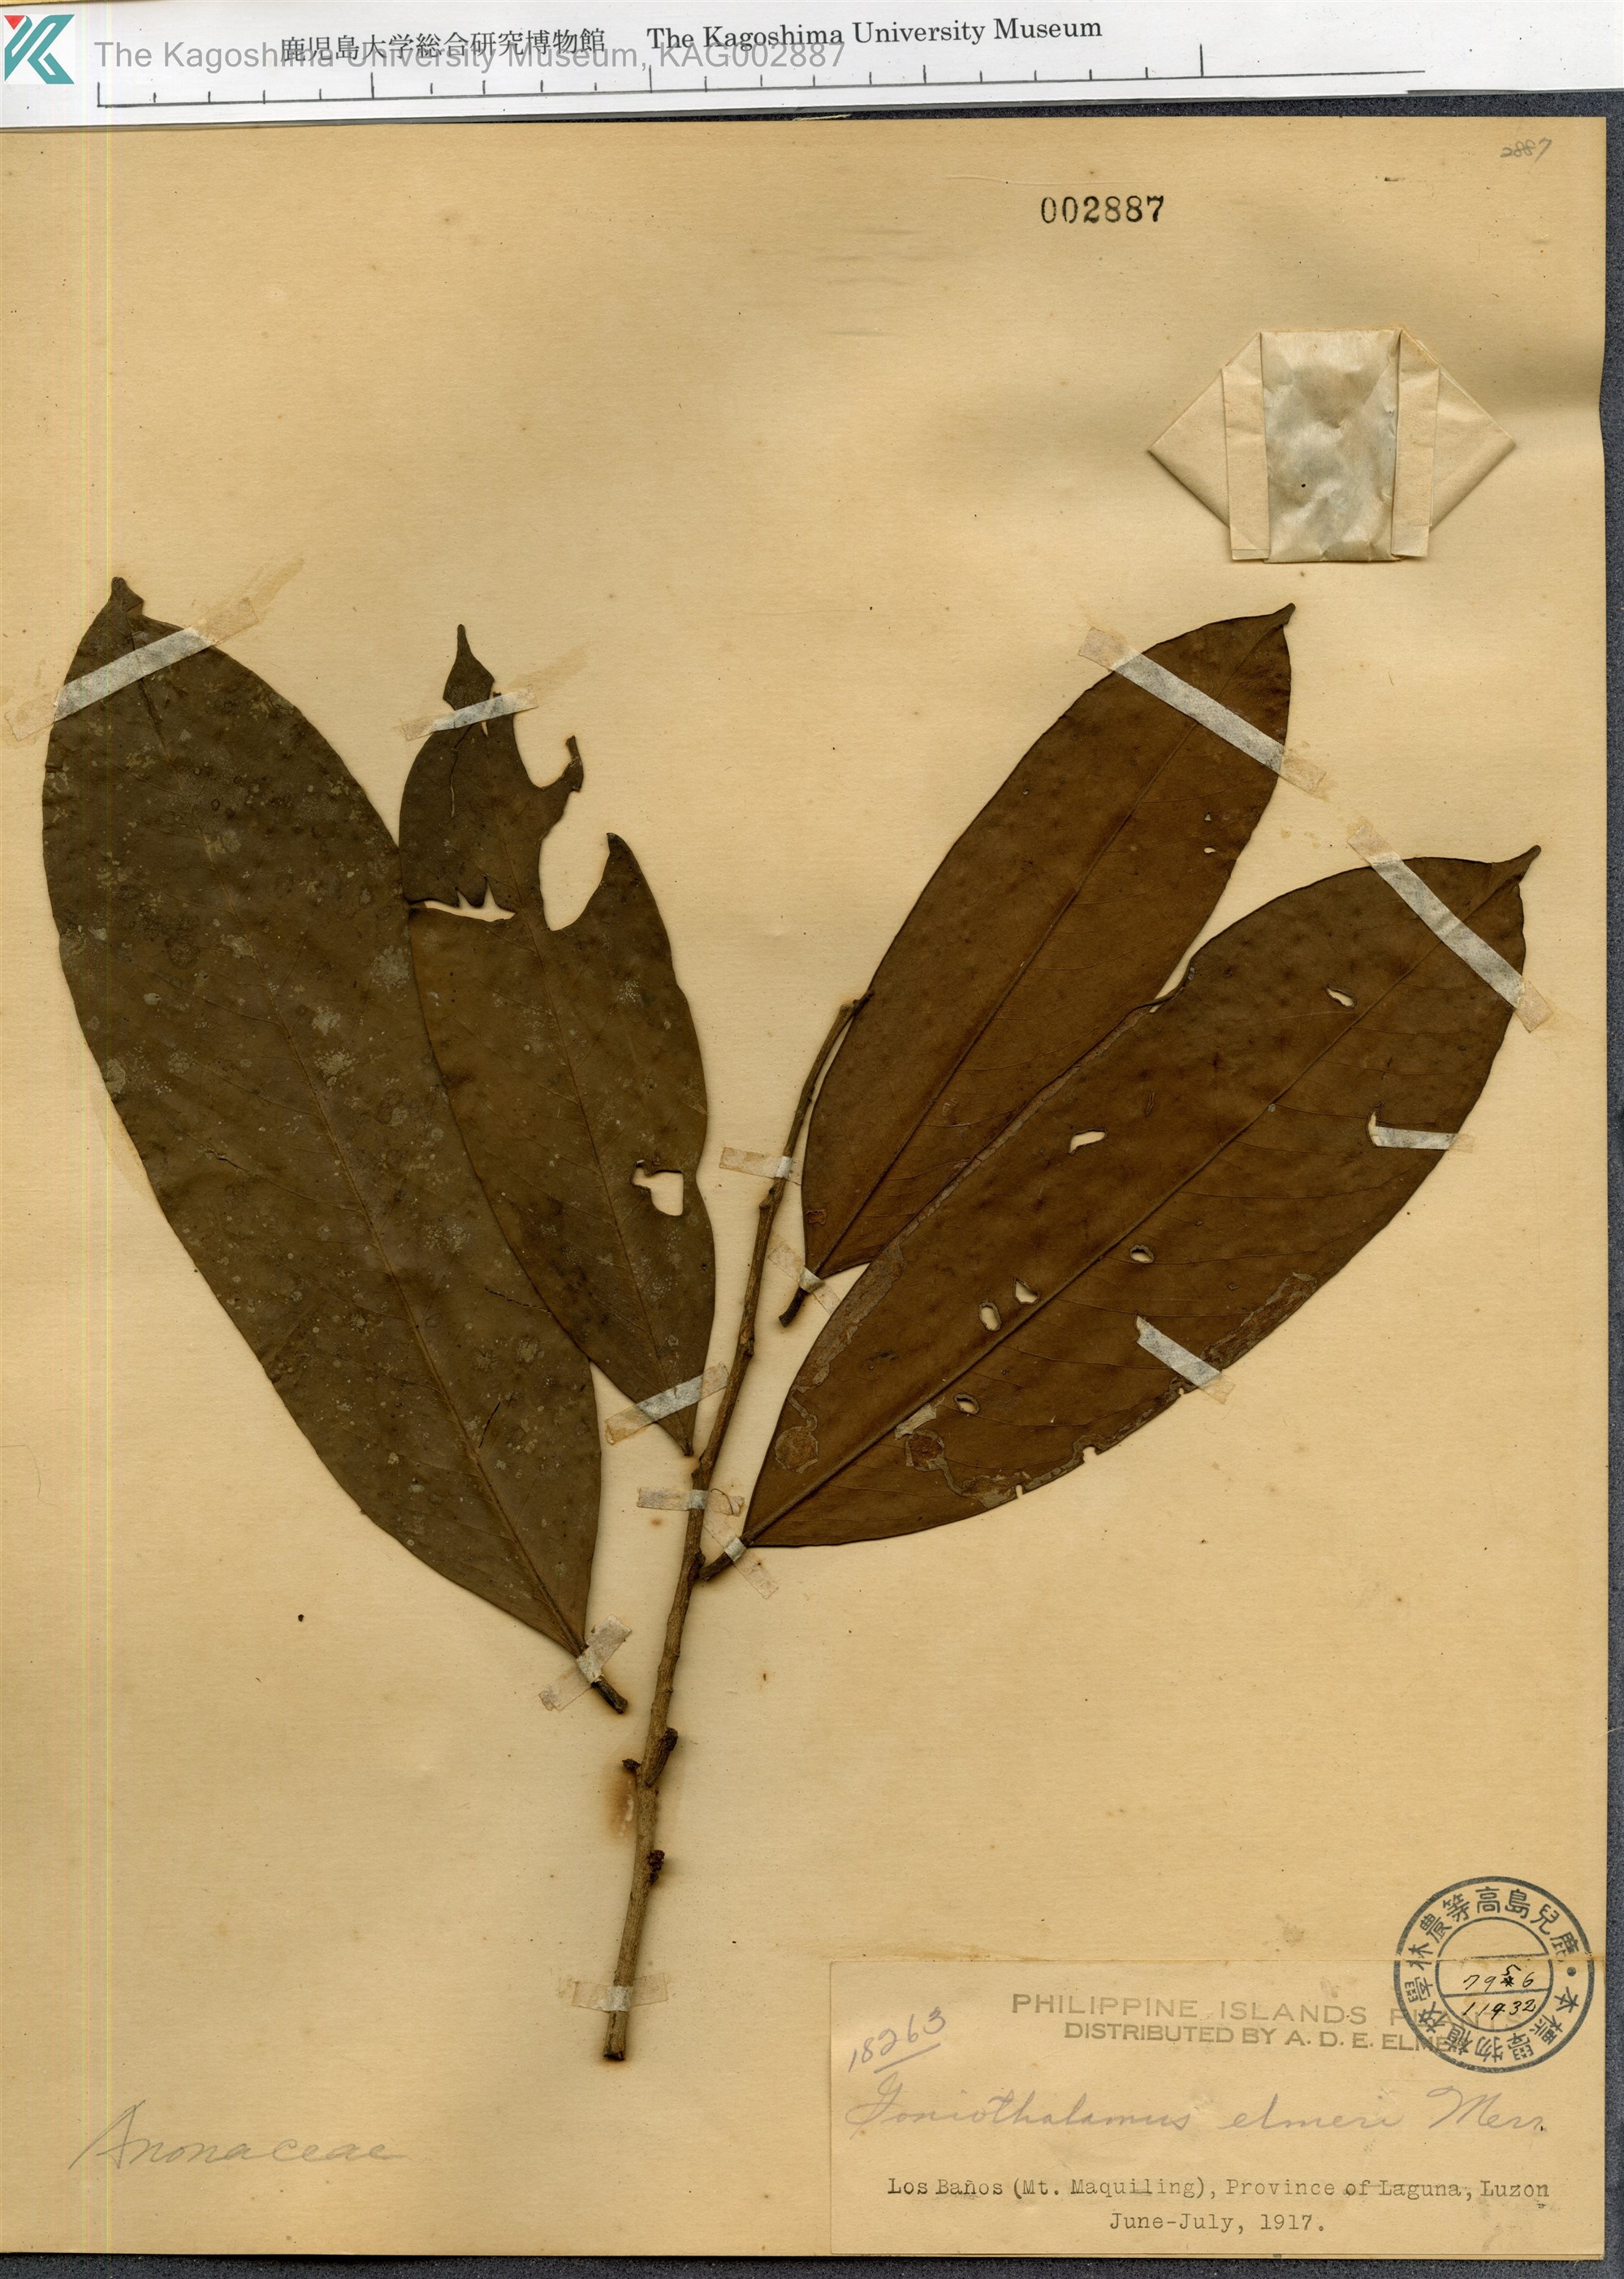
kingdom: Plantae
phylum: Tracheophyta
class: Magnoliopsida
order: Magnoliales
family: Annonaceae
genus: Goniothalamus
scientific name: Goniothalamus elmeri
